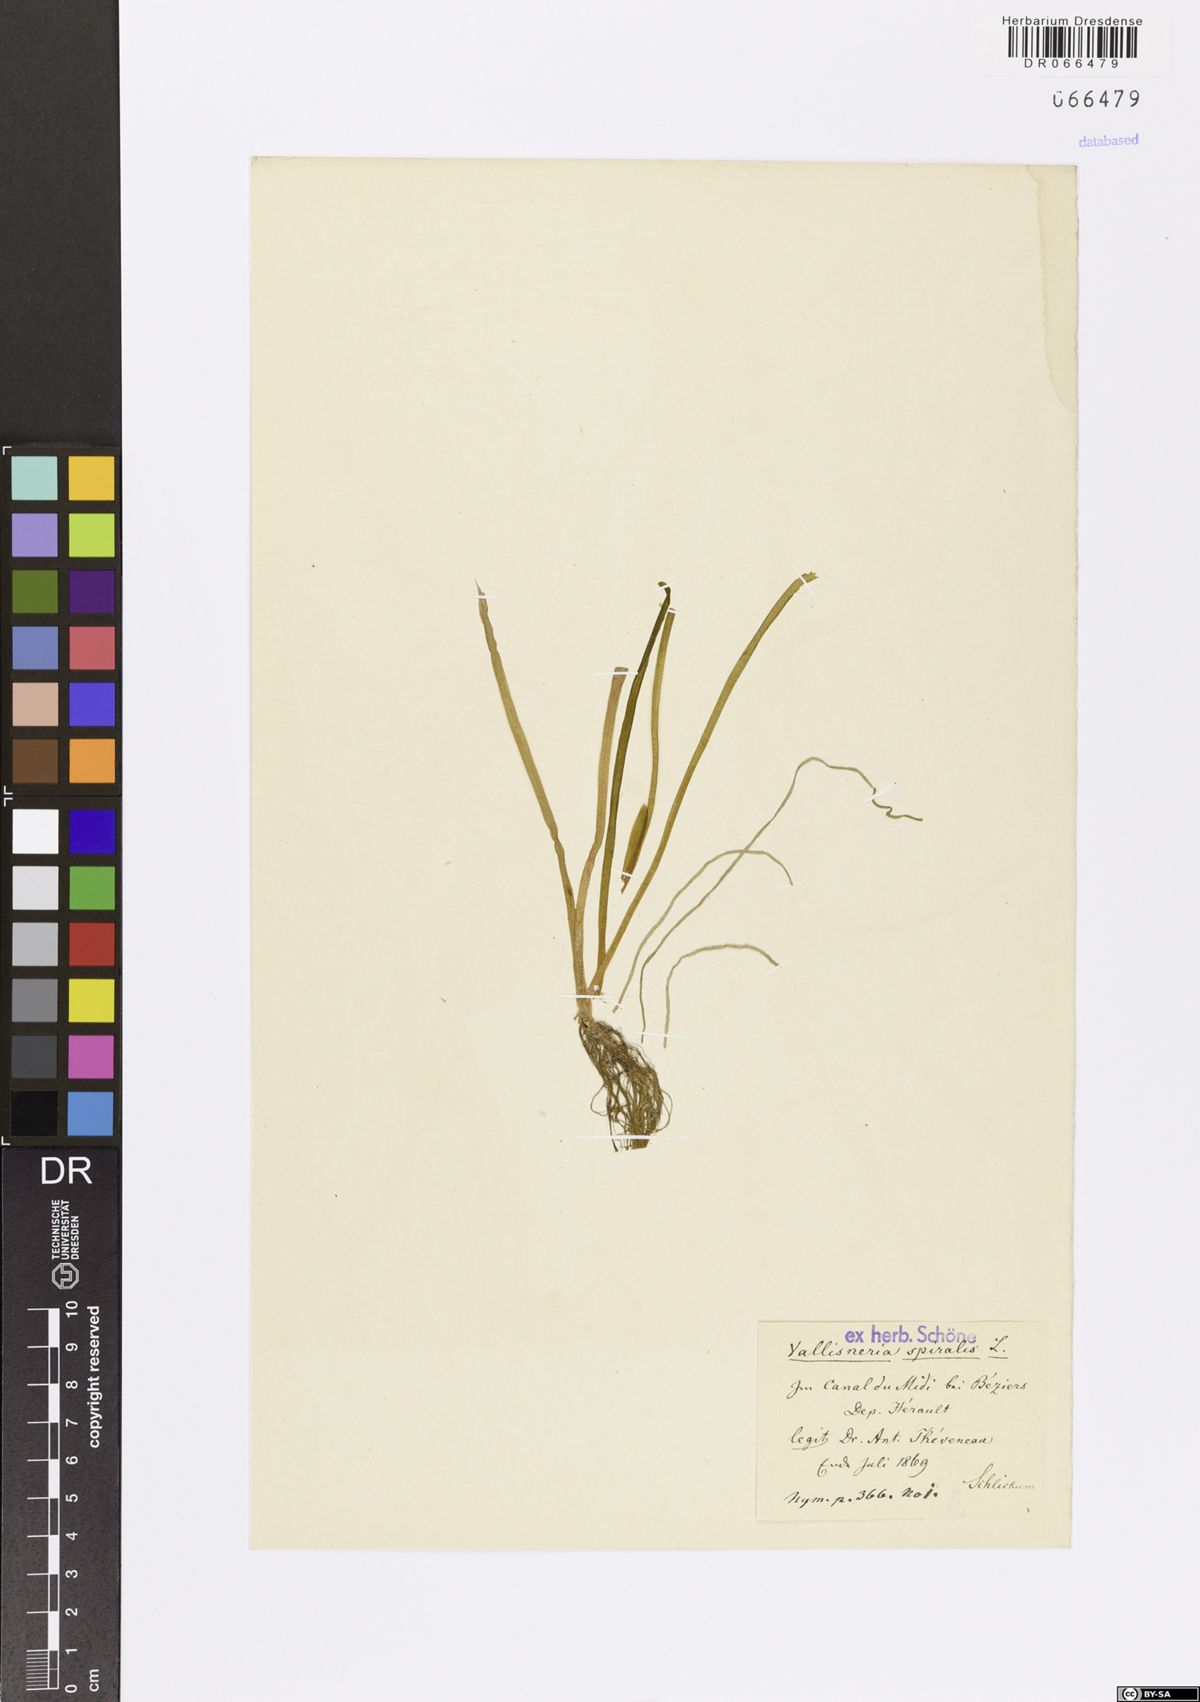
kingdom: Plantae
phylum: Tracheophyta
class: Liliopsida
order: Alismatales
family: Hydrocharitaceae
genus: Vallisneria
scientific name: Vallisneria spiralis
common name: Tapegrass
